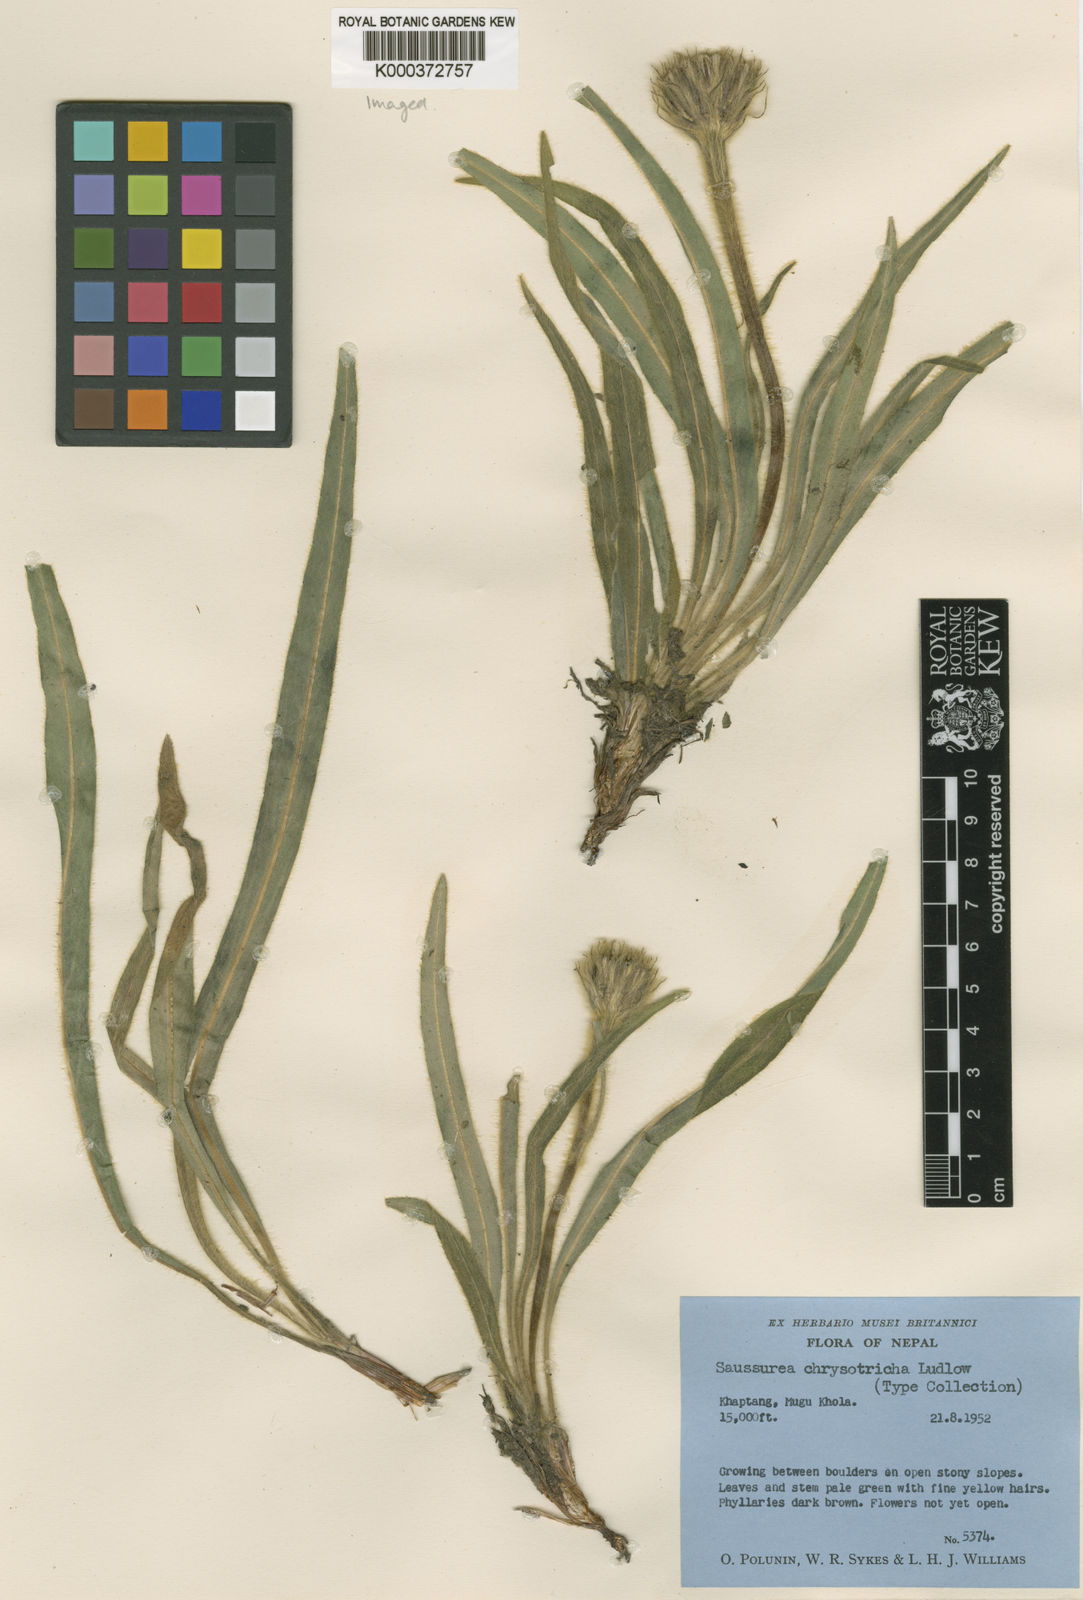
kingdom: Plantae
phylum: Tracheophyta
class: Magnoliopsida
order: Asterales
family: Asteraceae
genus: Saussurea
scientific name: Saussurea chrysotricha
